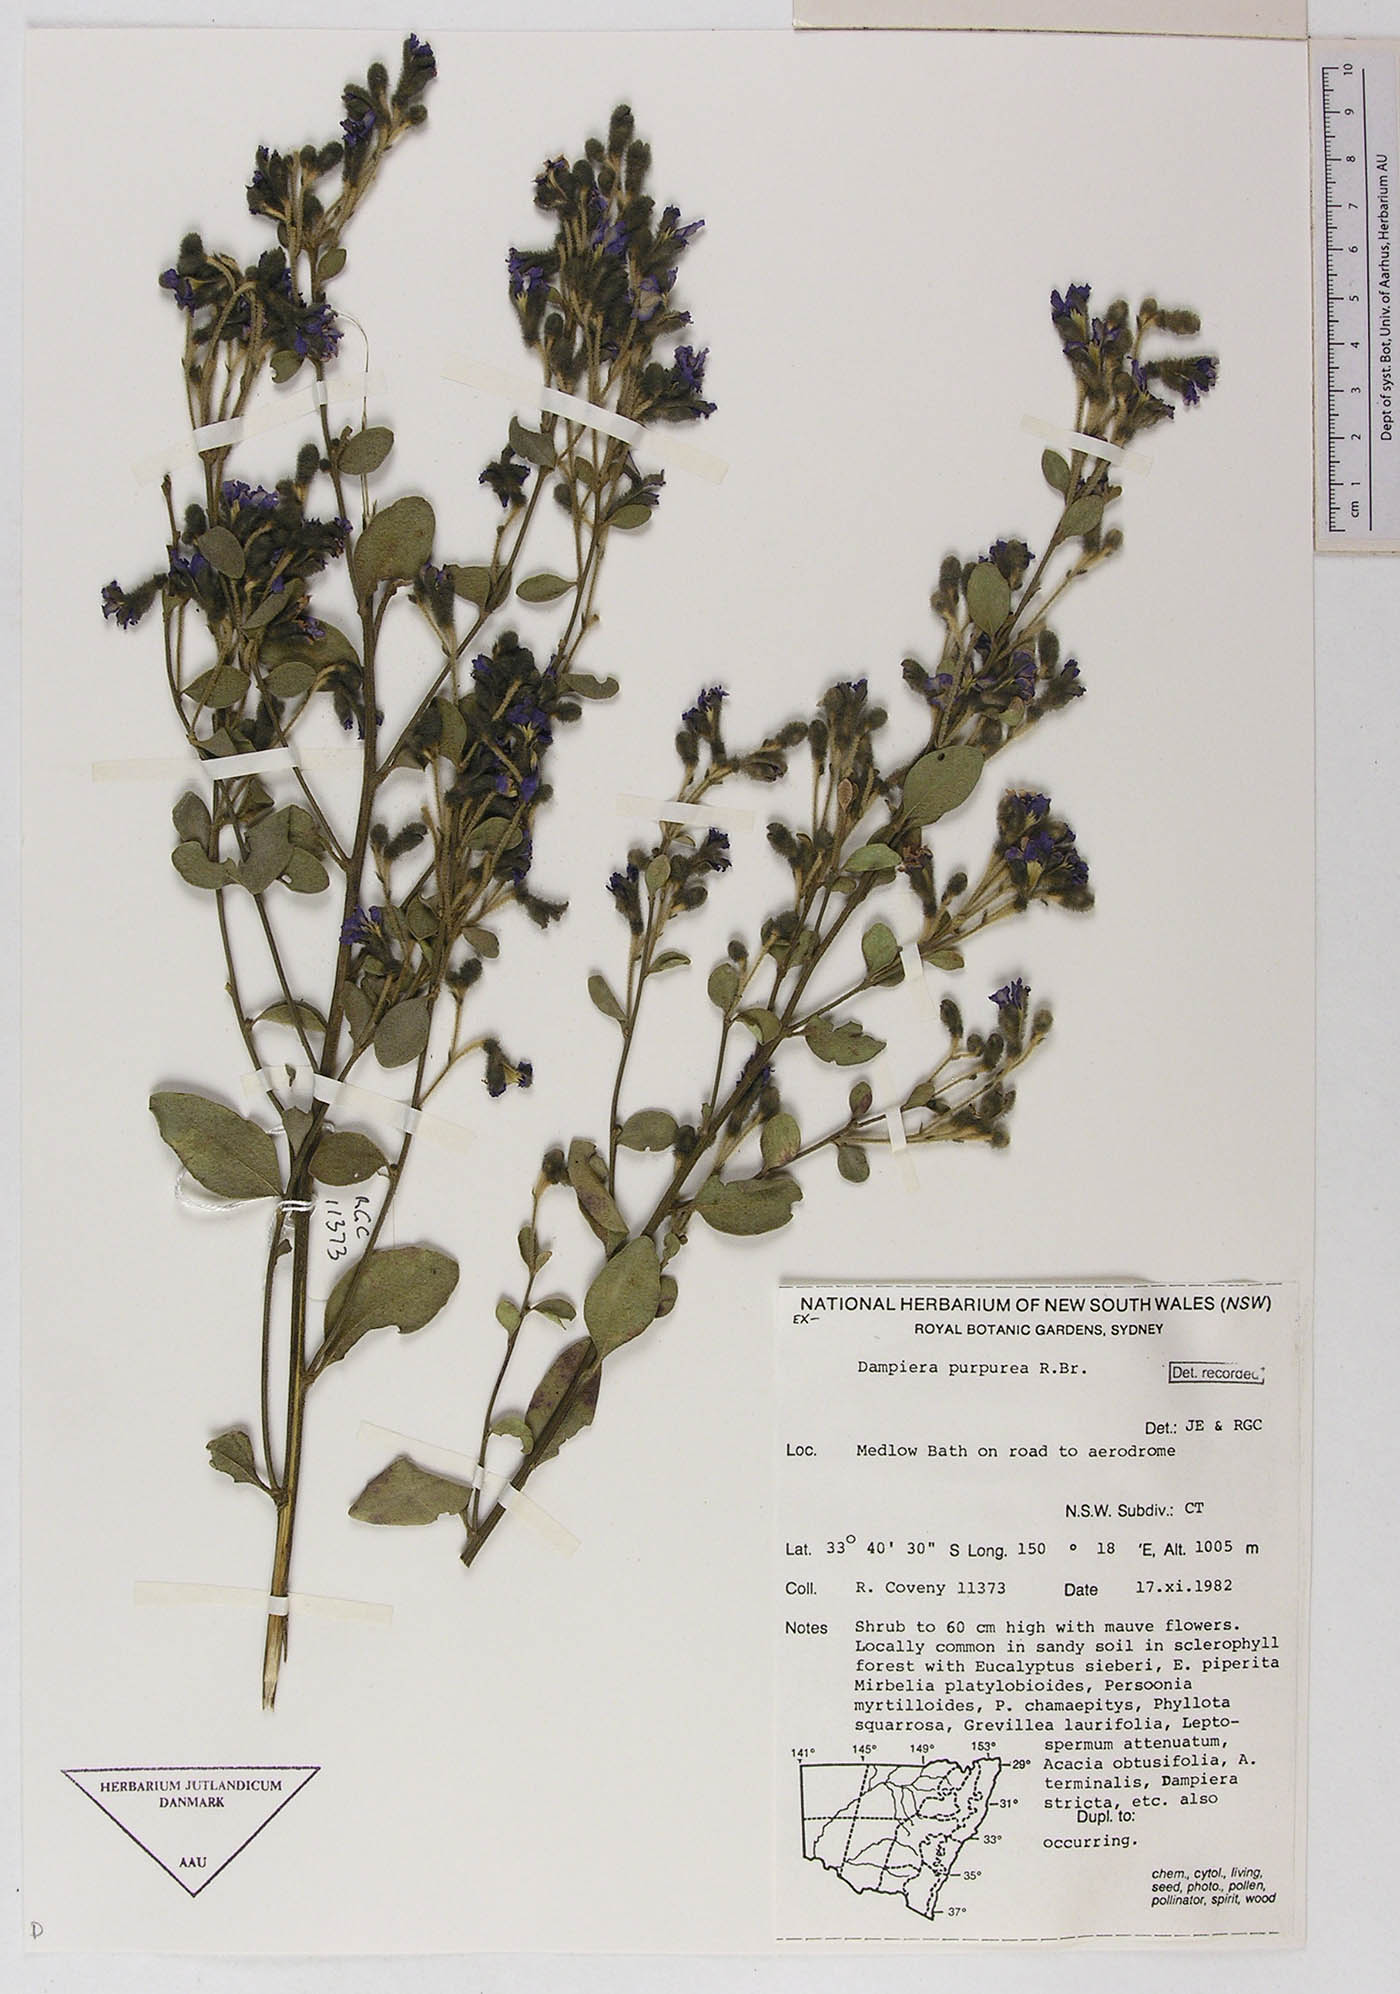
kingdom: Plantae
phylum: Tracheophyta
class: Magnoliopsida
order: Asterales
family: Goodeniaceae
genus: Dampiera
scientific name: Dampiera purpurea
